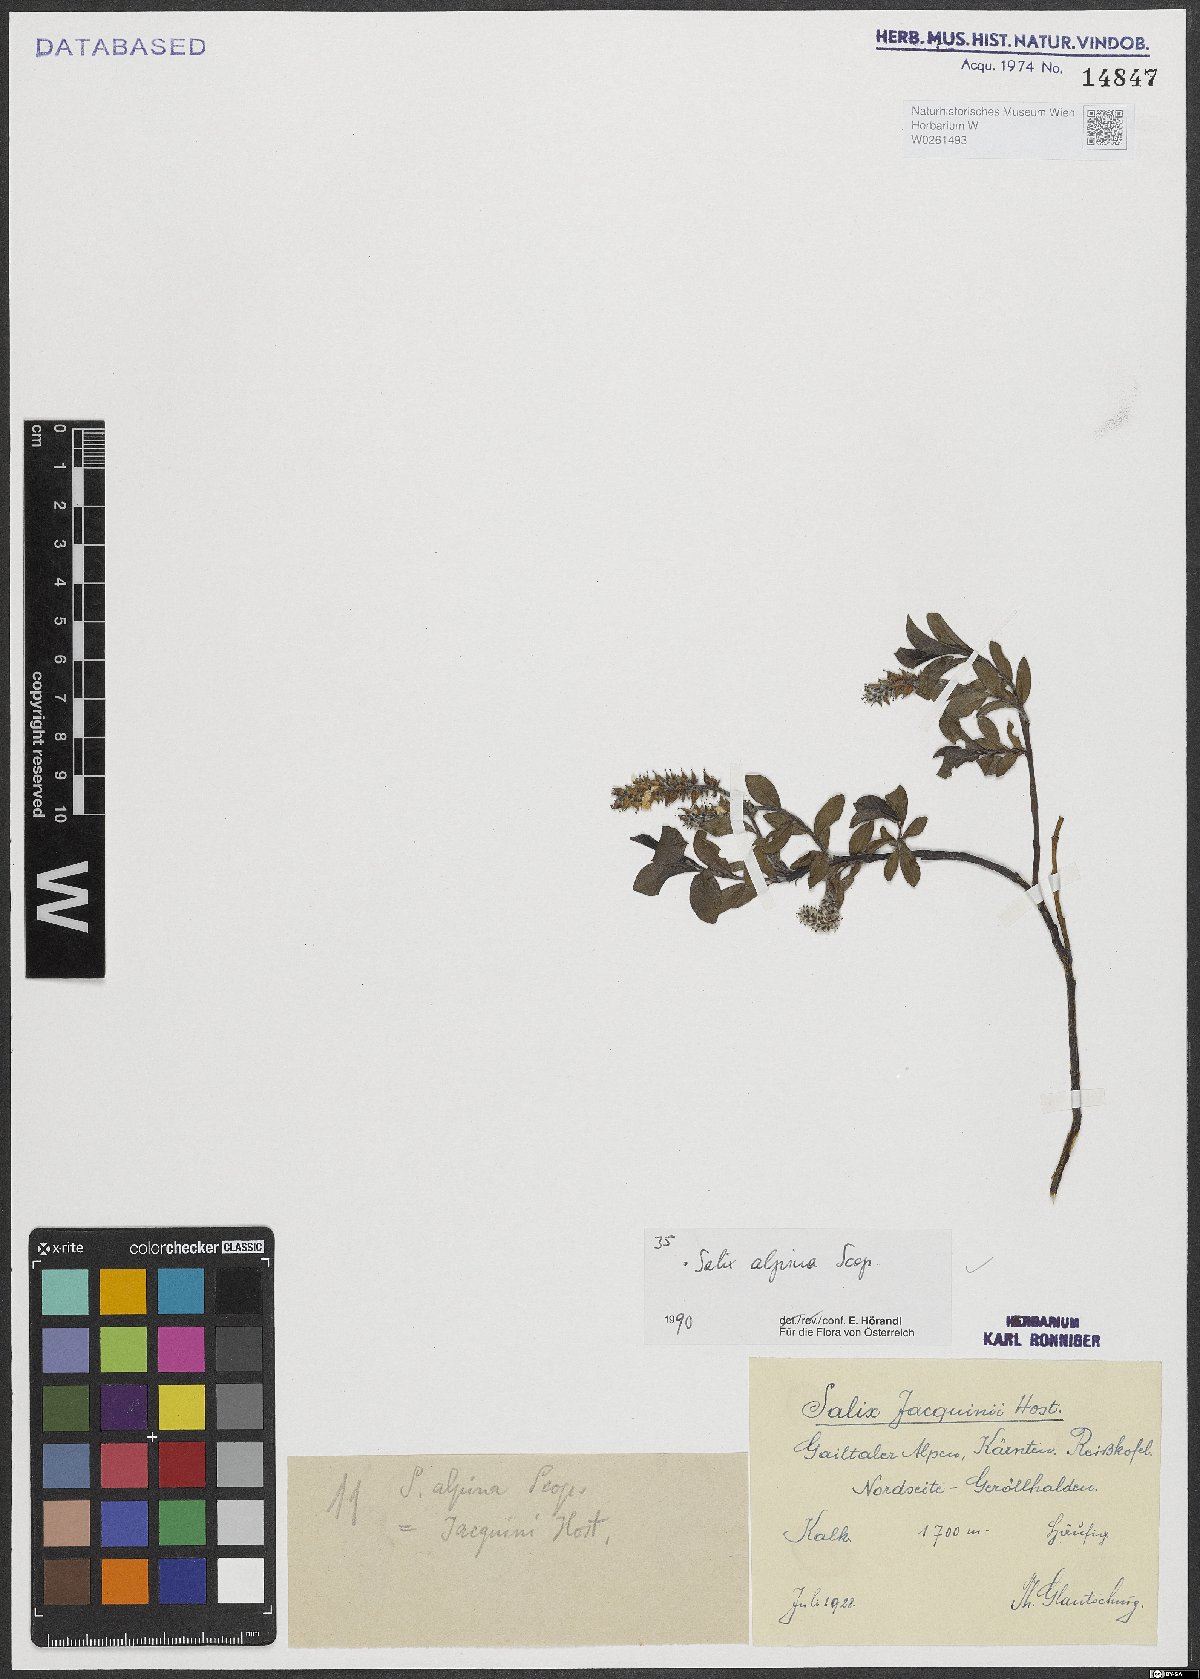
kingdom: Plantae
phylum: Tracheophyta
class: Magnoliopsida
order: Malpighiales
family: Salicaceae
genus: Salix
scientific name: Salix alpina
